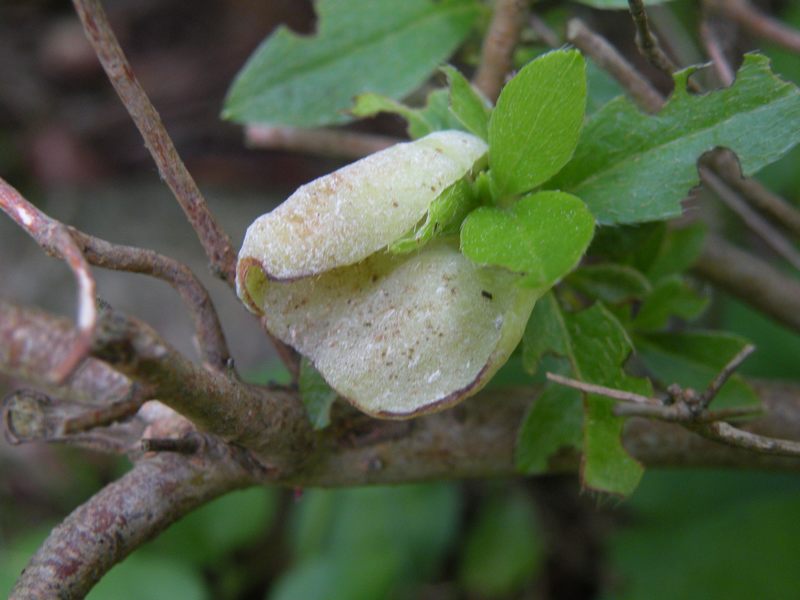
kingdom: Fungi
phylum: Basidiomycota
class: Exobasidiomycetes
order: Exobasidiales
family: Exobasidiaceae
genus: Exobasidium
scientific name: Exobasidium japonicum
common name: Azalea gall
